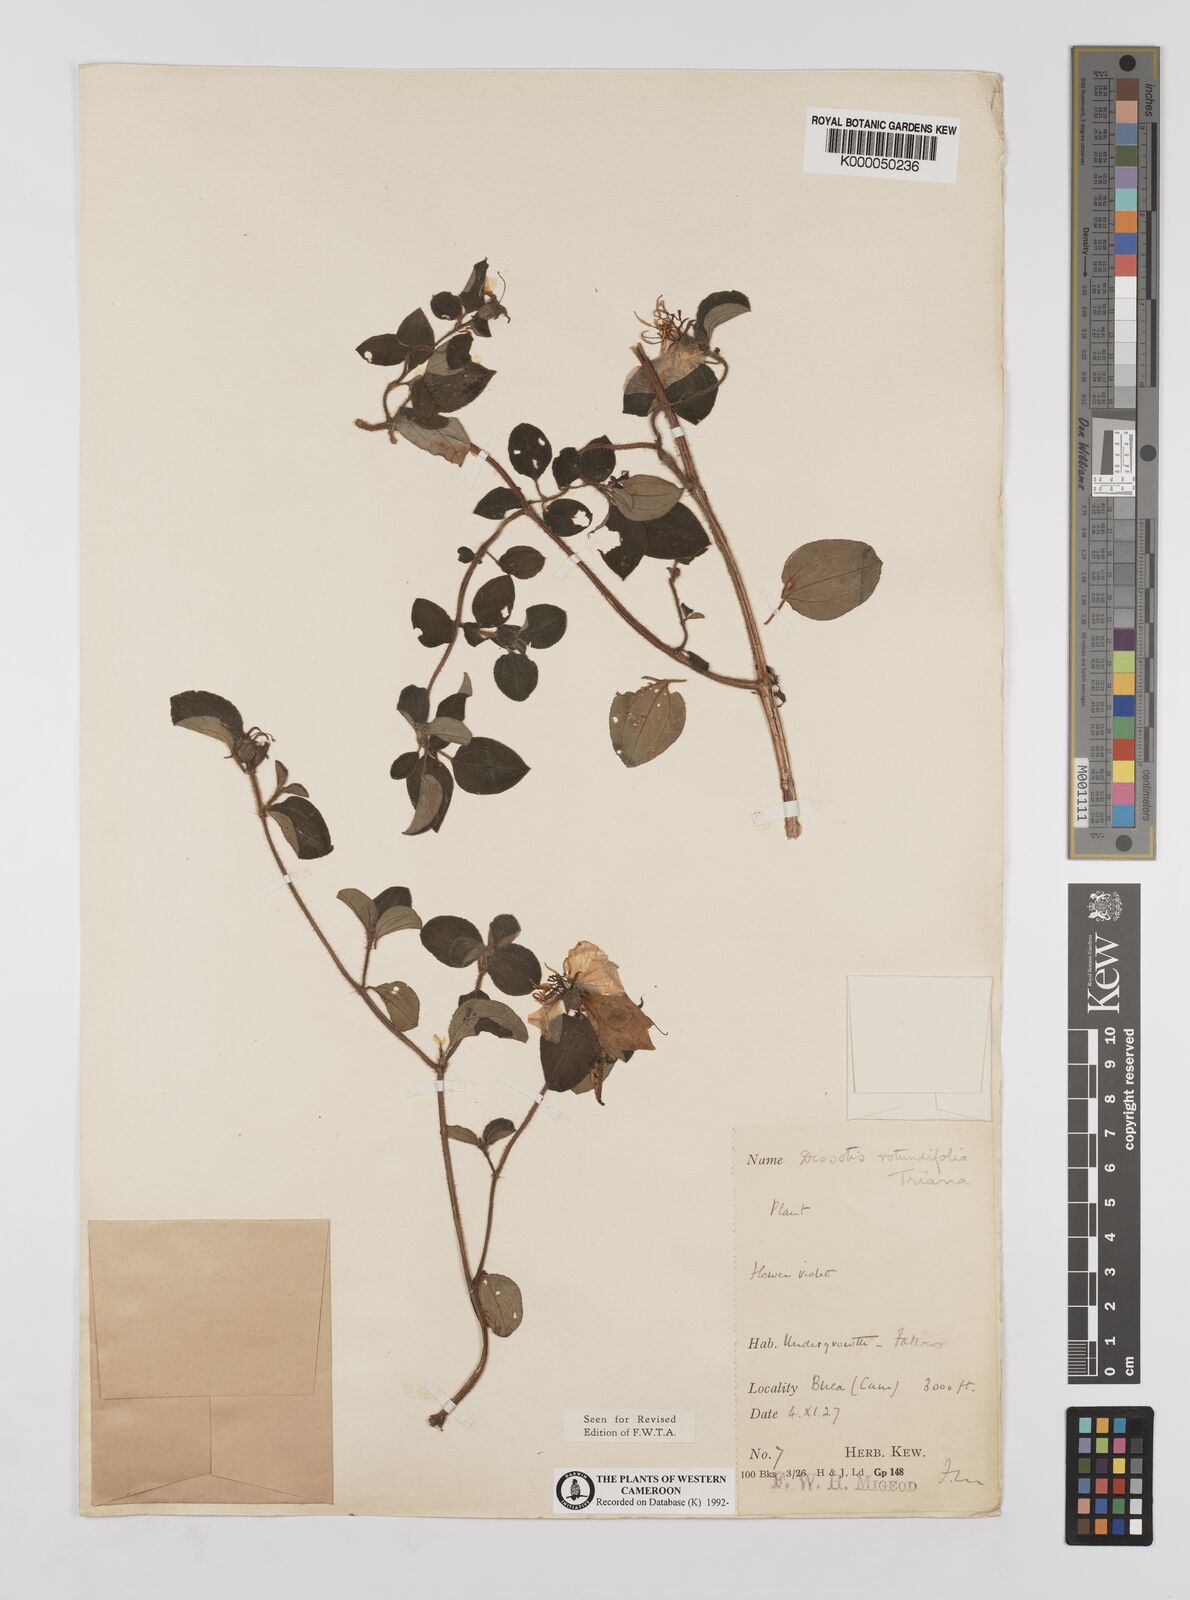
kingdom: Plantae
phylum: Tracheophyta
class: Magnoliopsida
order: Myrtales
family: Melastomataceae
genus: Heterotis
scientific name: Heterotis rotundifolia
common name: Pinklady
